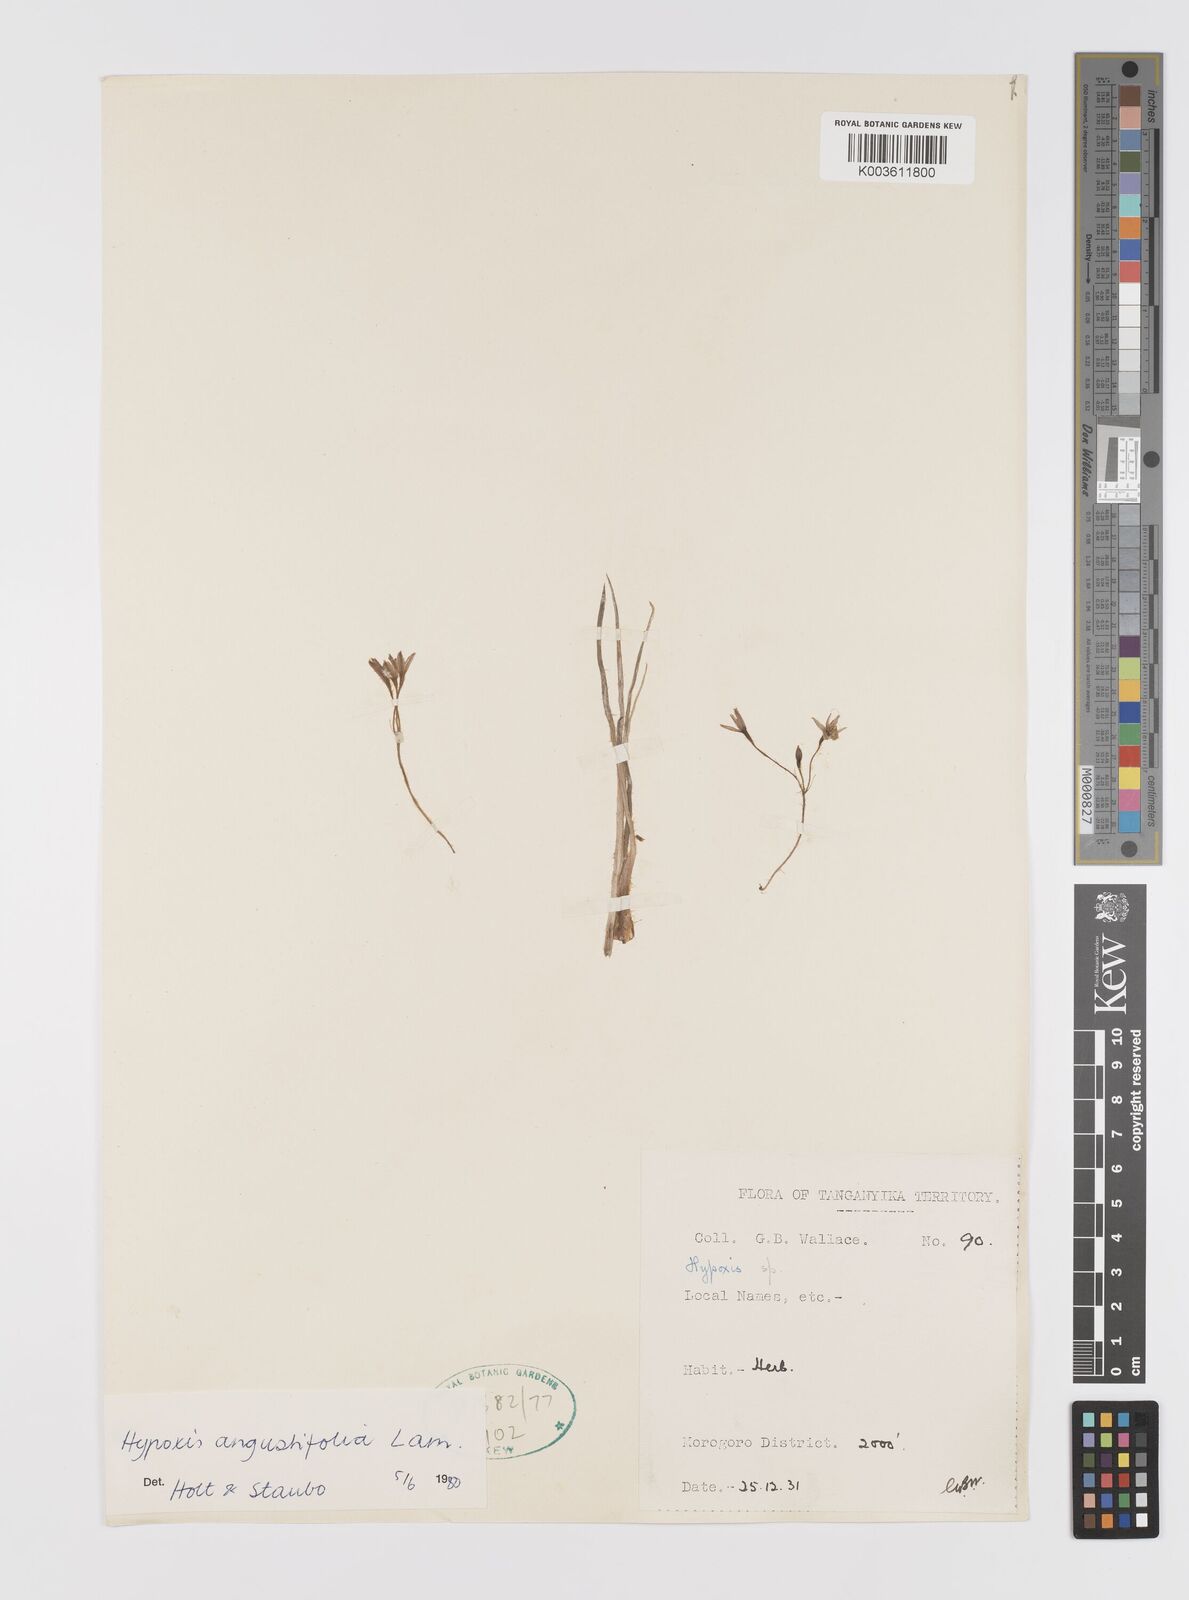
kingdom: Plantae
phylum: Tracheophyta
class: Liliopsida
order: Asparagales
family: Hypoxidaceae
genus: Hypoxis
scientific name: Hypoxis angustifolia
